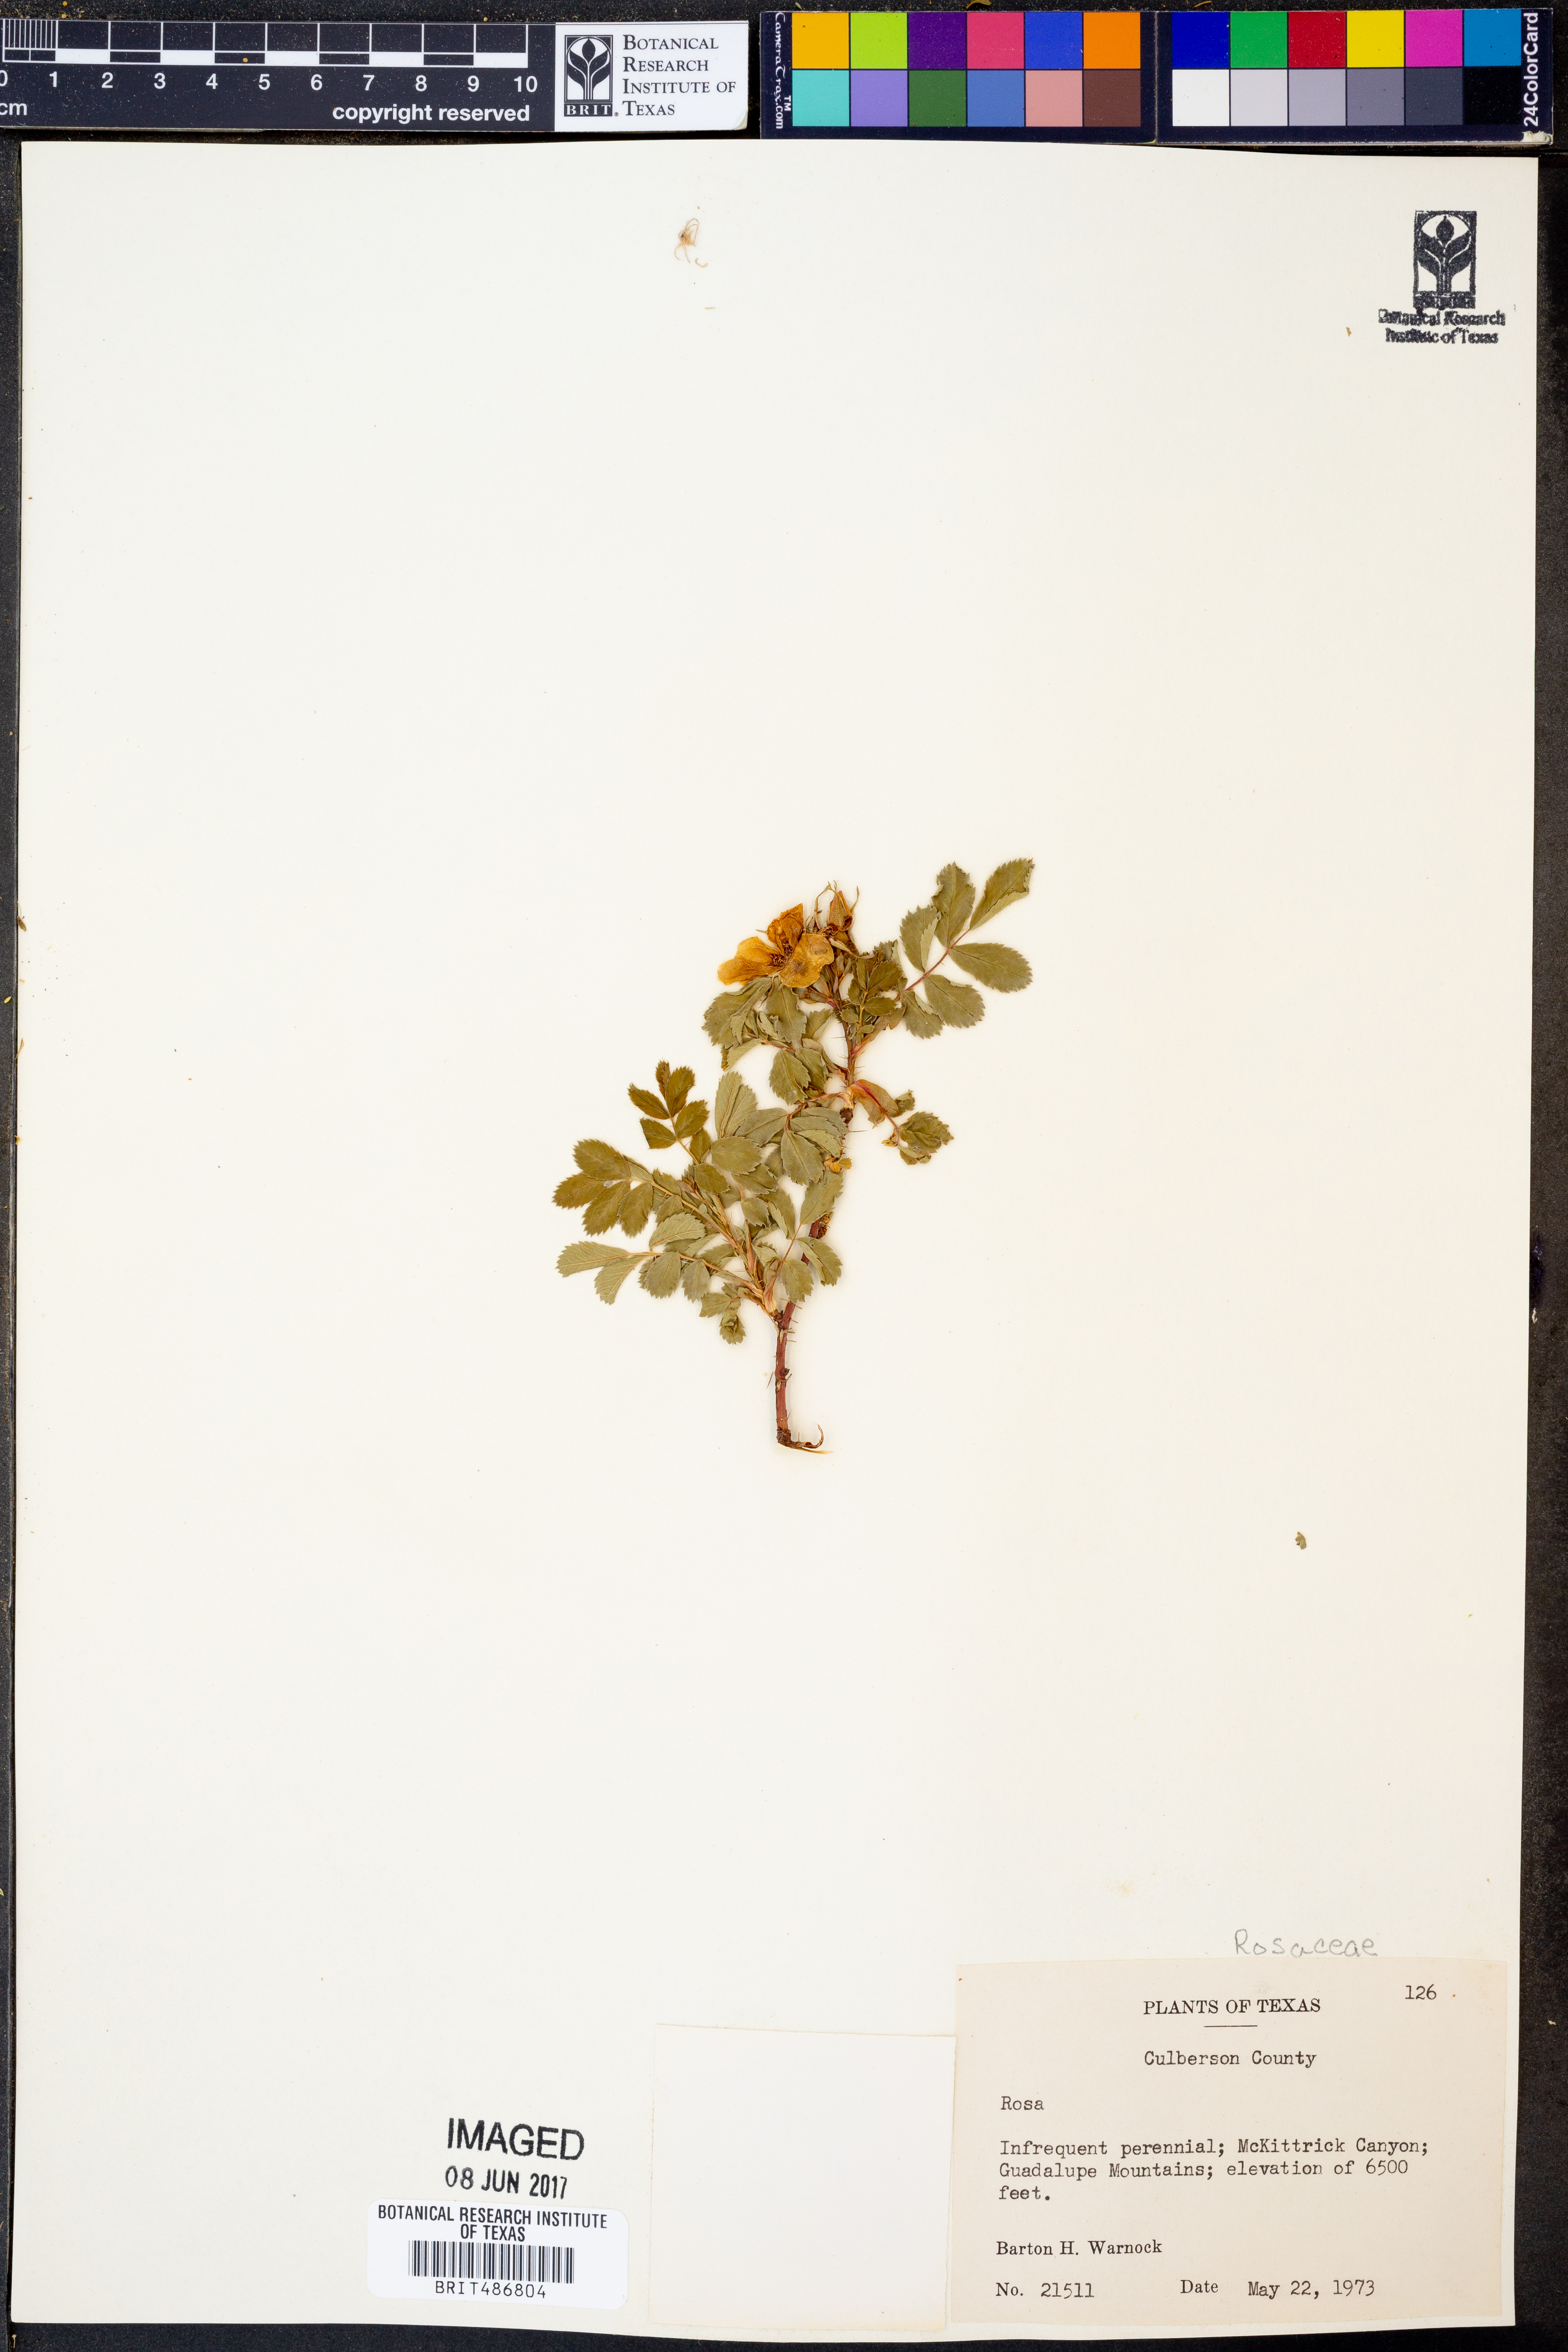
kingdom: Plantae
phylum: Tracheophyta
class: Magnoliopsida
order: Rosales
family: Rosaceae
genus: Rosa
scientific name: Rosa
